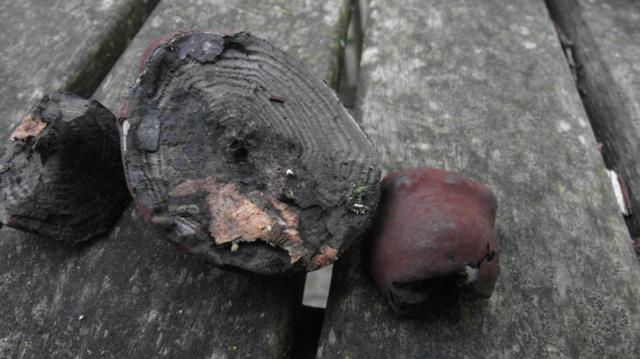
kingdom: Fungi
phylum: Ascomycota
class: Sordariomycetes
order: Xylariales
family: Hypoxylaceae
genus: Daldinia
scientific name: Daldinia concentrica
